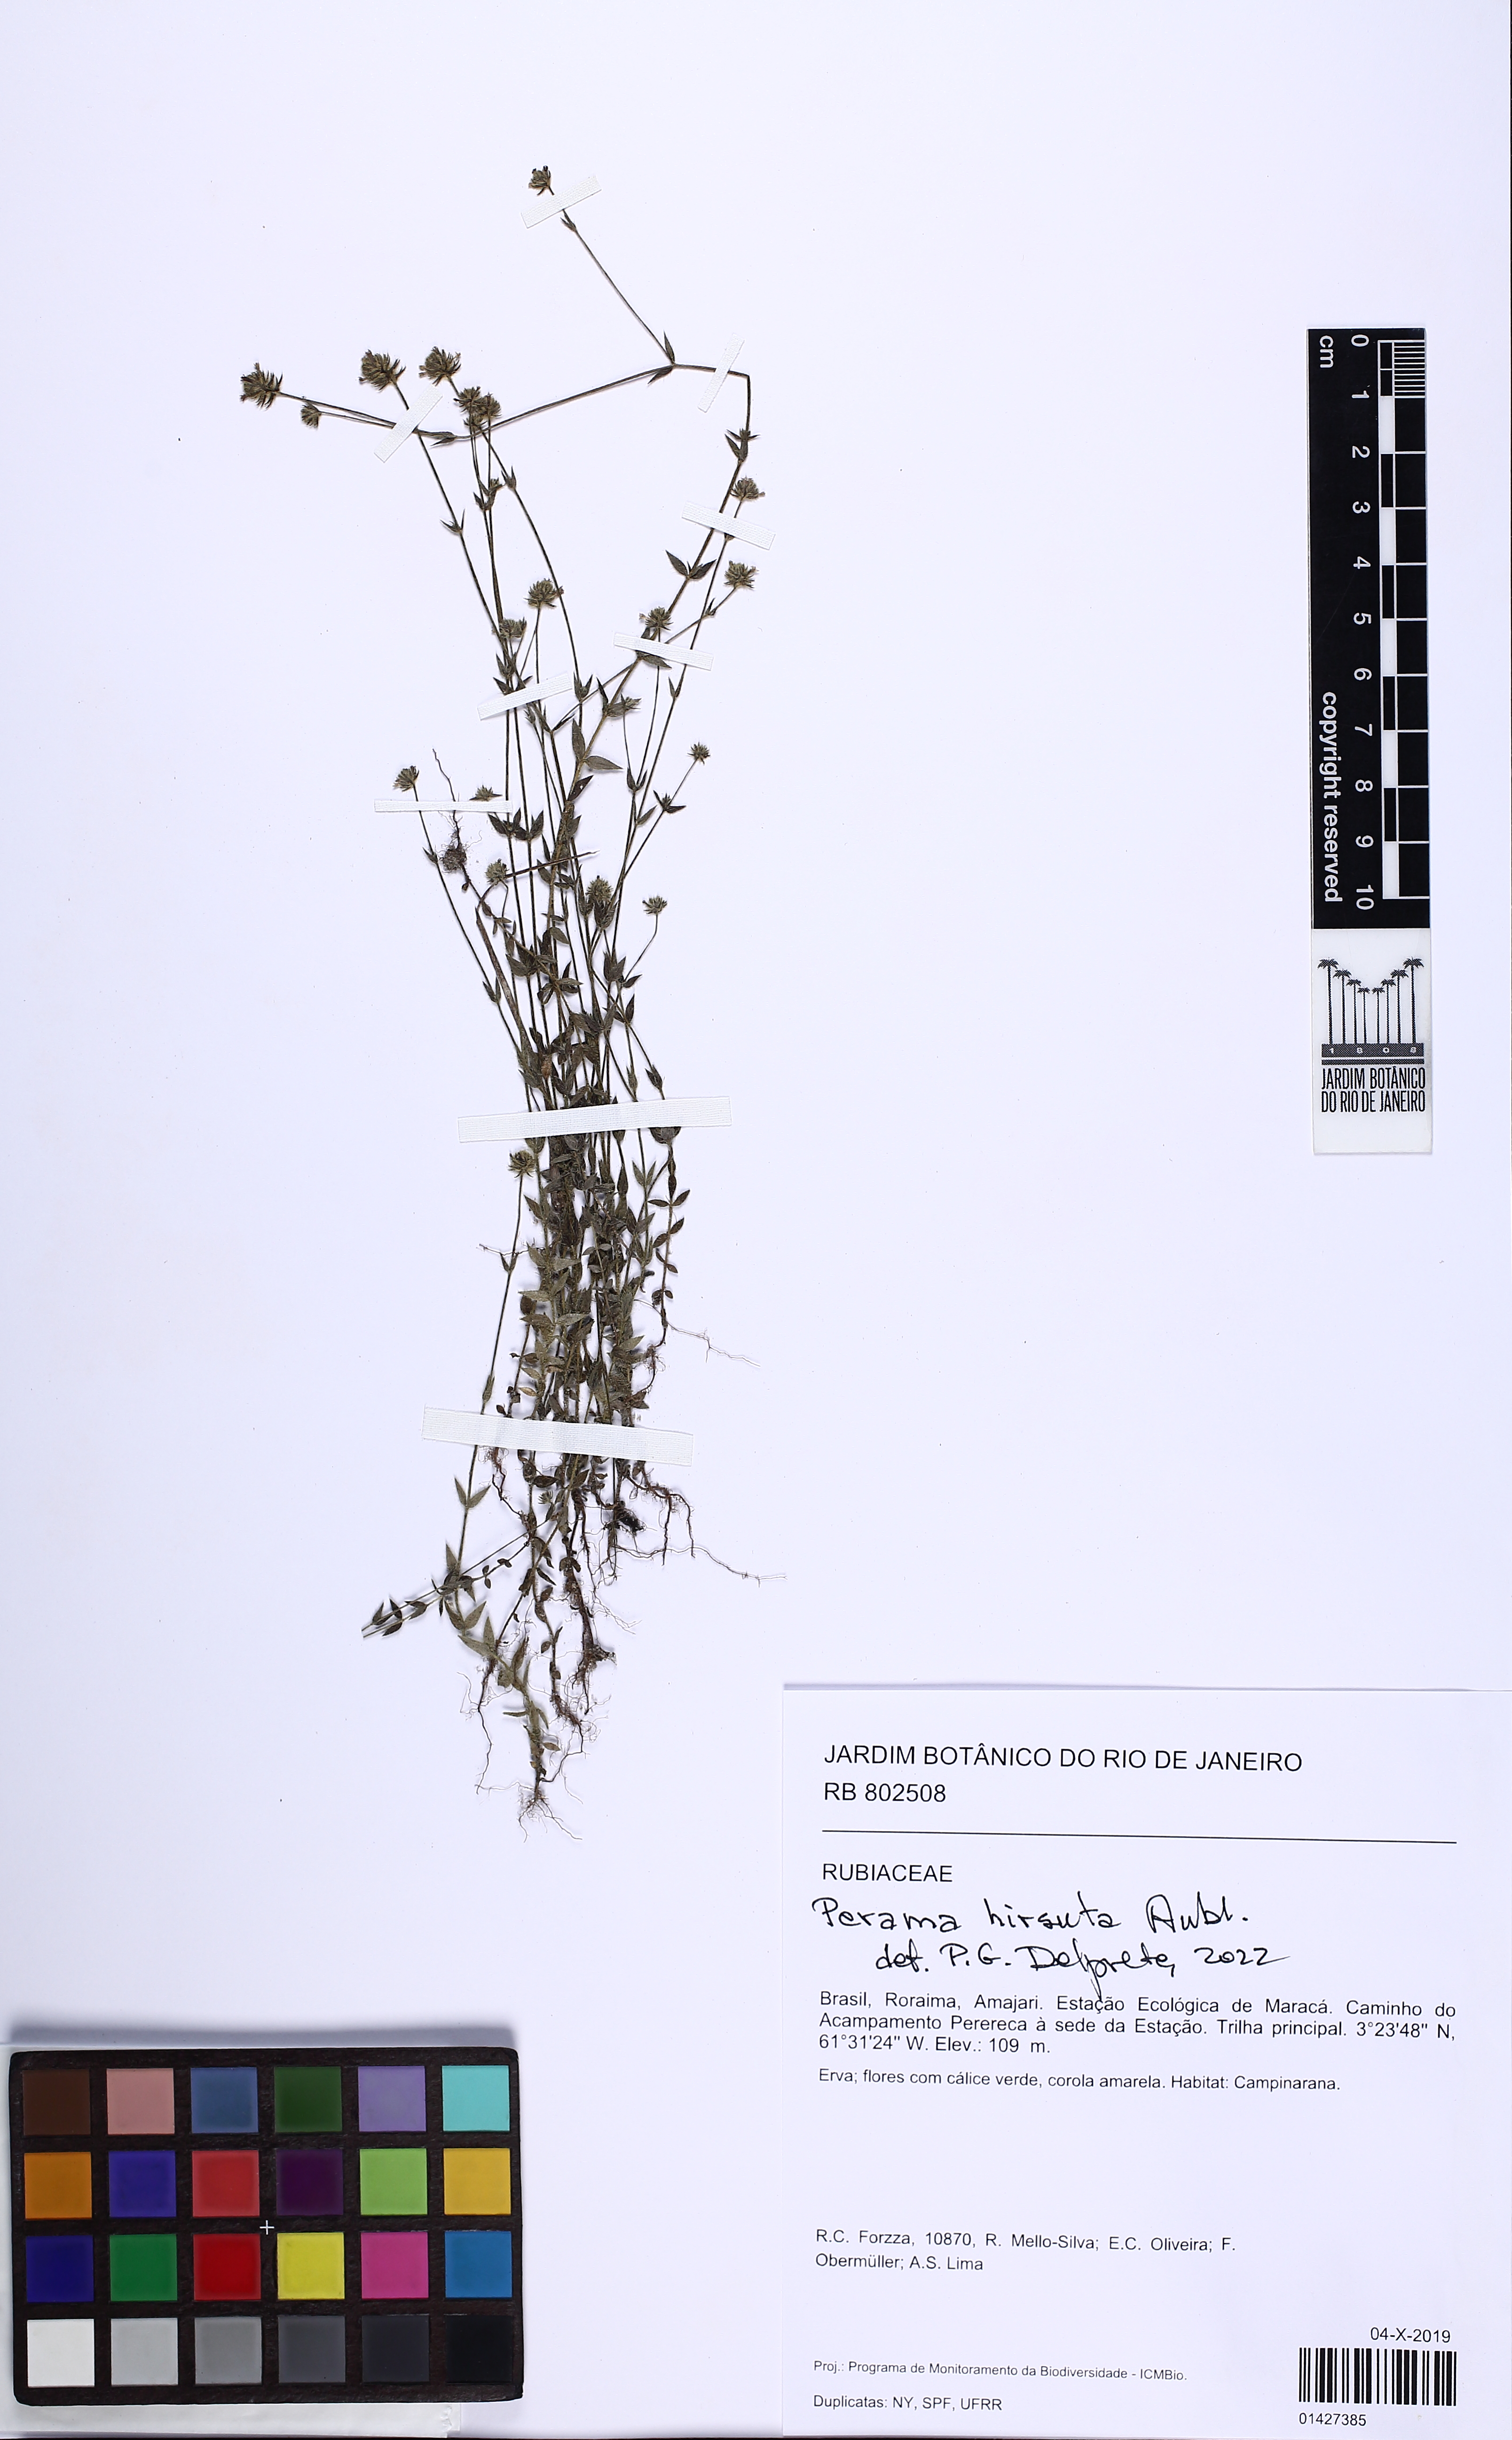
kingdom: Plantae
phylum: Tracheophyta
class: Magnoliopsida
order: Gentianales
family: Rubiaceae
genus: Perama
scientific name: Perama hirsuta
